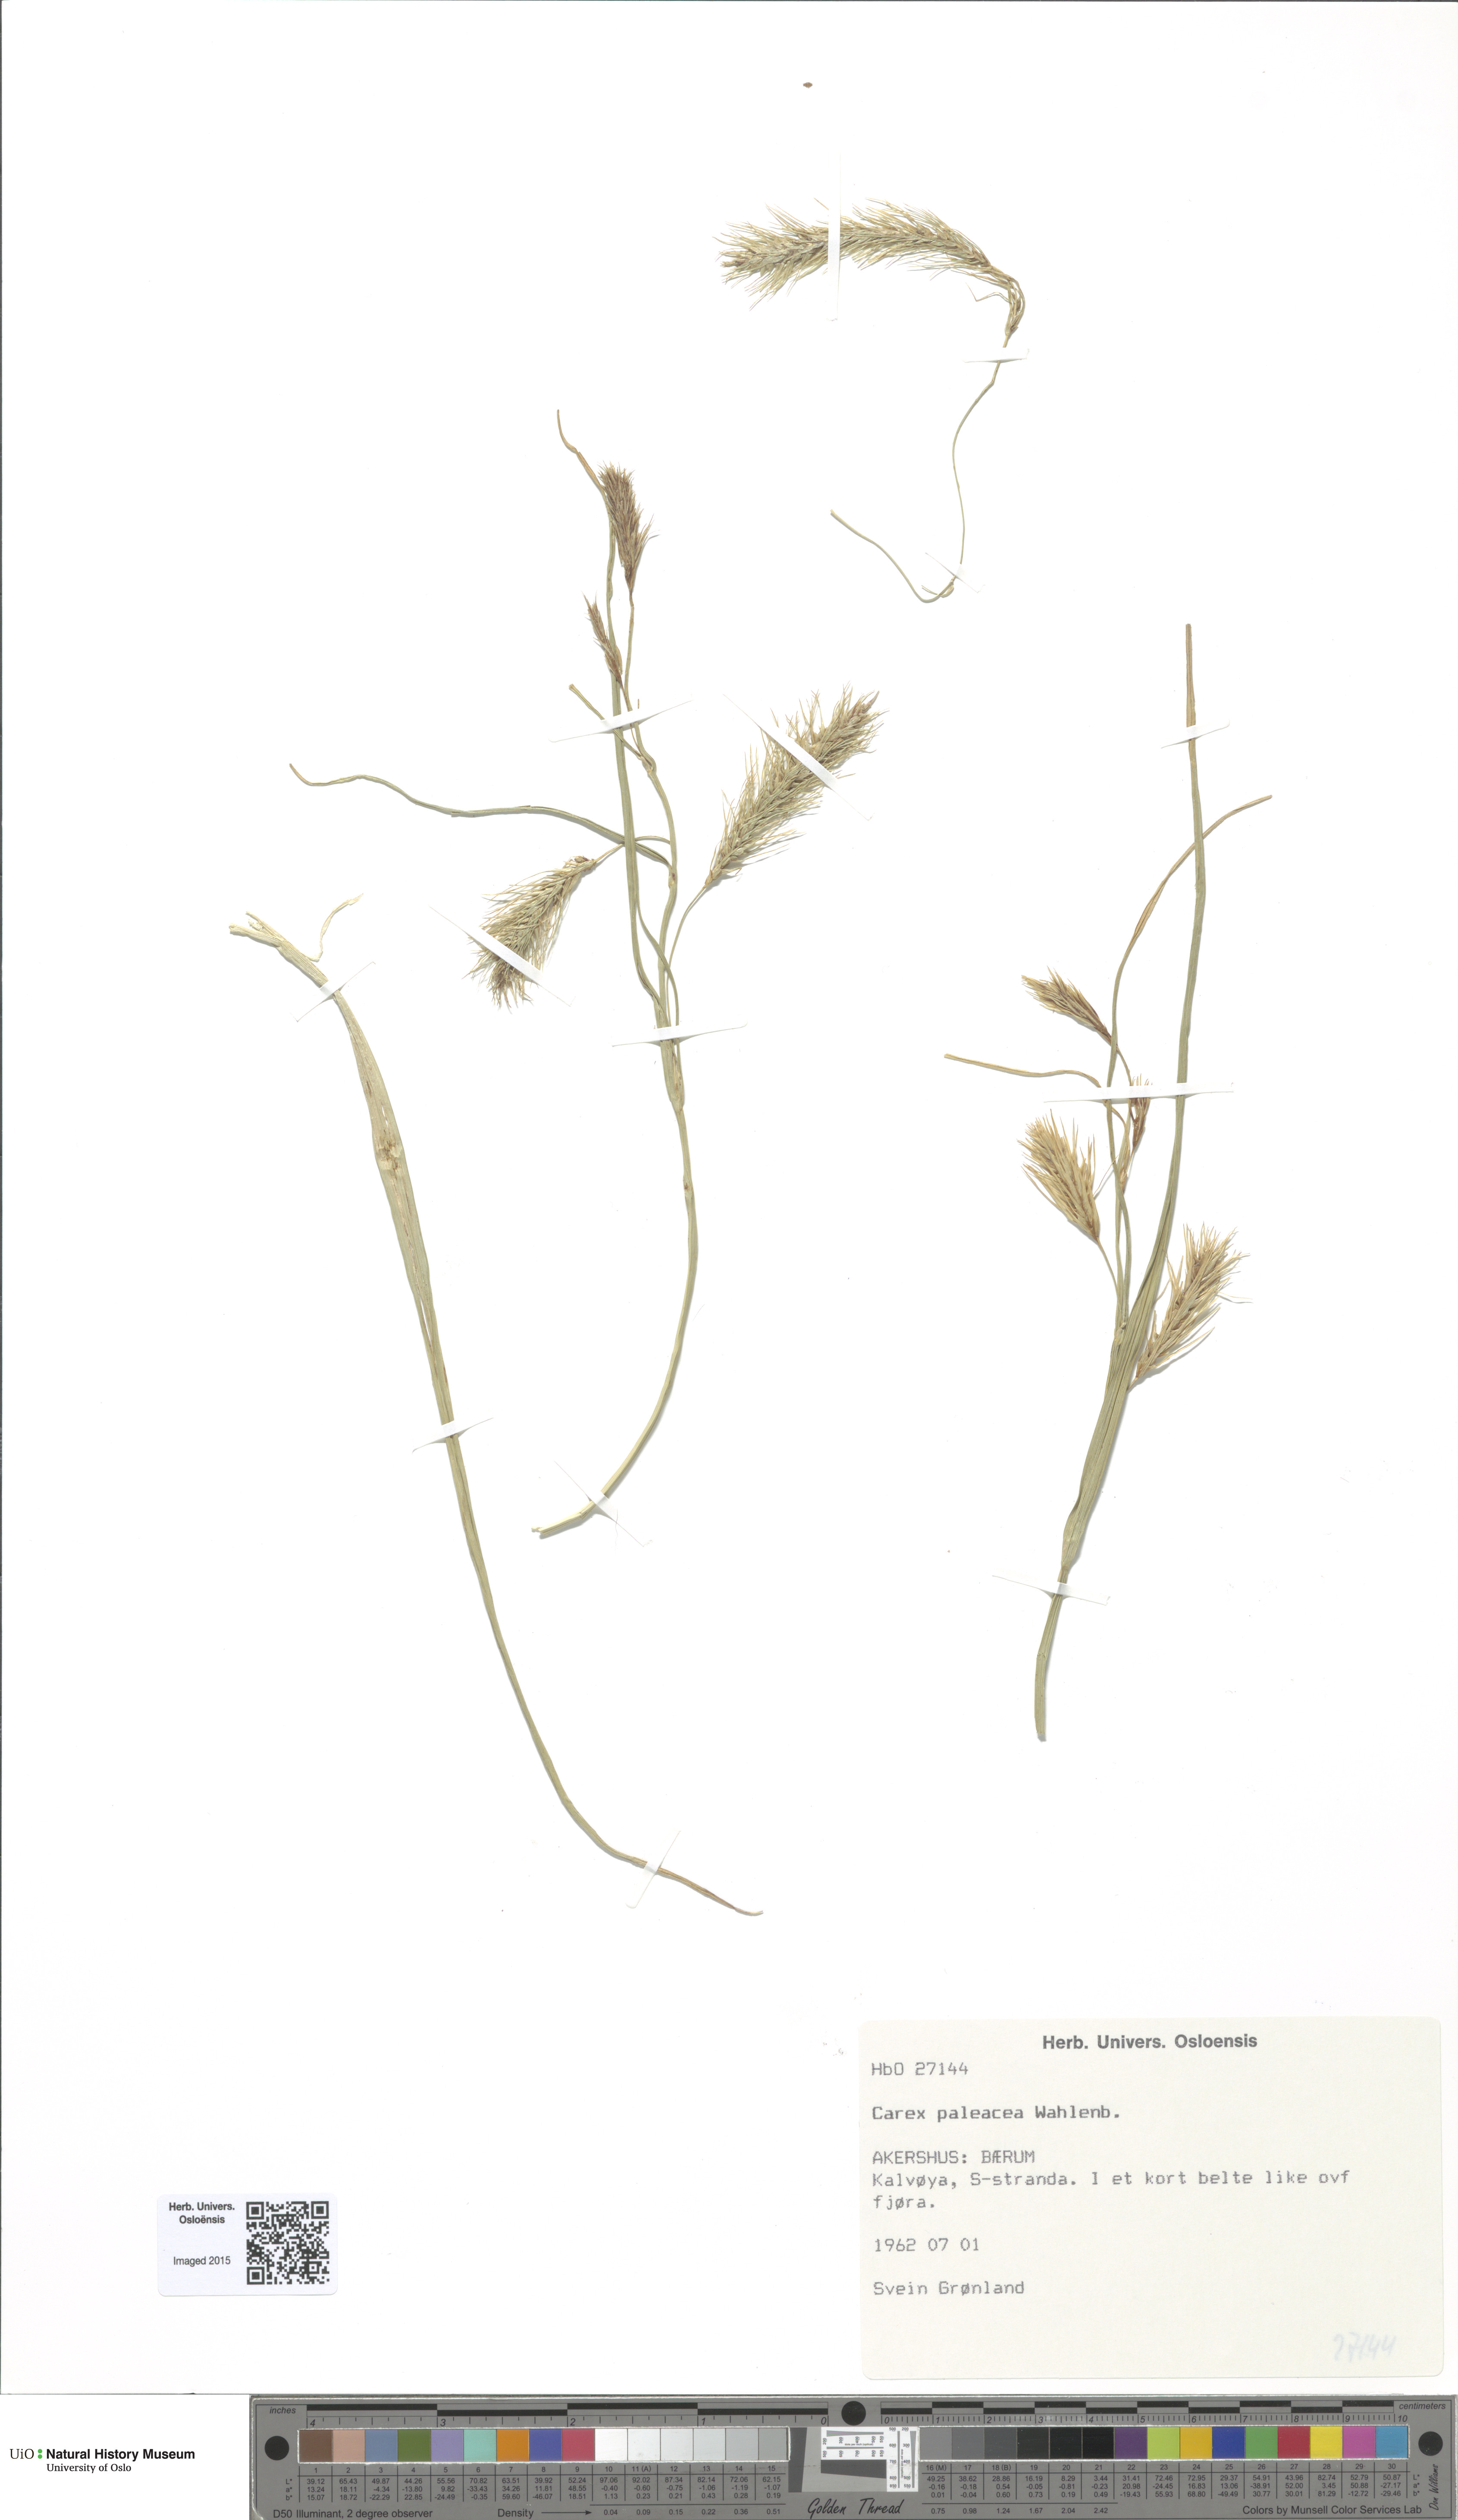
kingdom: Plantae
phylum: Tracheophyta
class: Liliopsida
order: Poales
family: Cyperaceae
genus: Carex
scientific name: Carex paleacea
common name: Chaffy sedge
